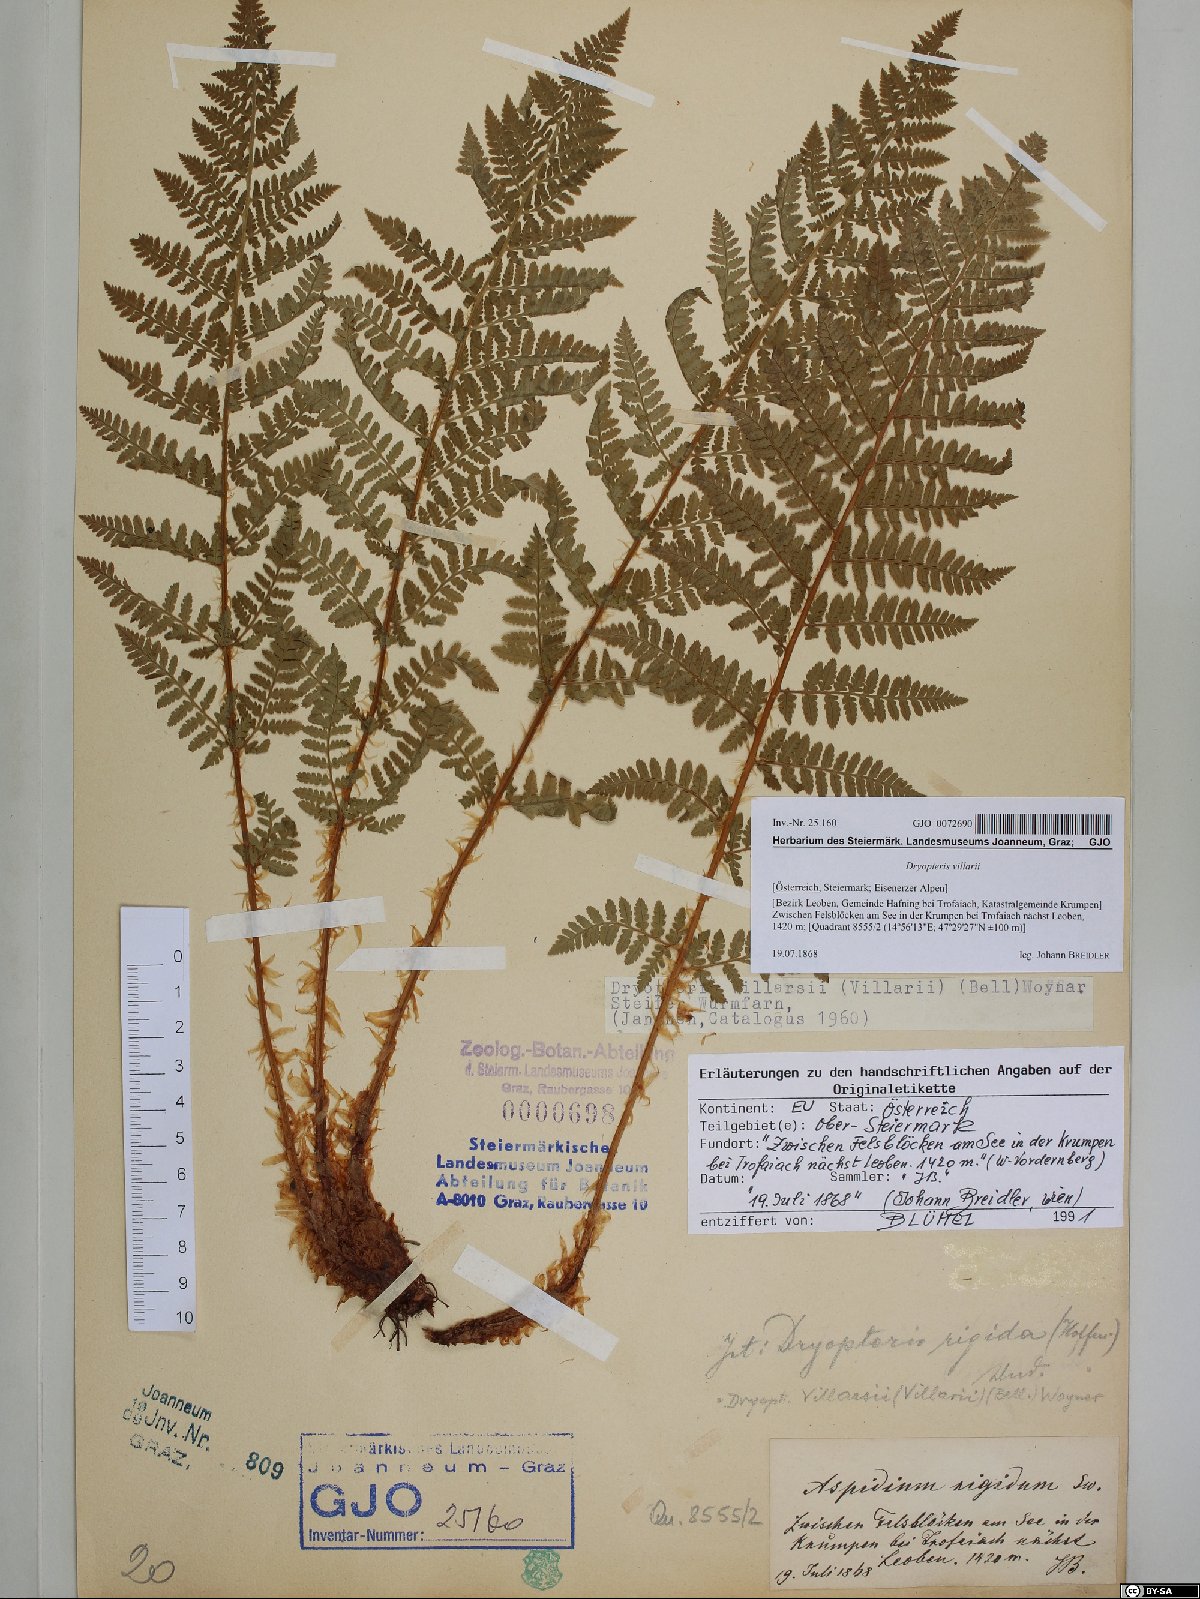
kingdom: Plantae
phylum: Tracheophyta
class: Polypodiopsida
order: Polypodiales
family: Dryopteridaceae
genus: Dryopteris
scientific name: Dryopteris villarii
